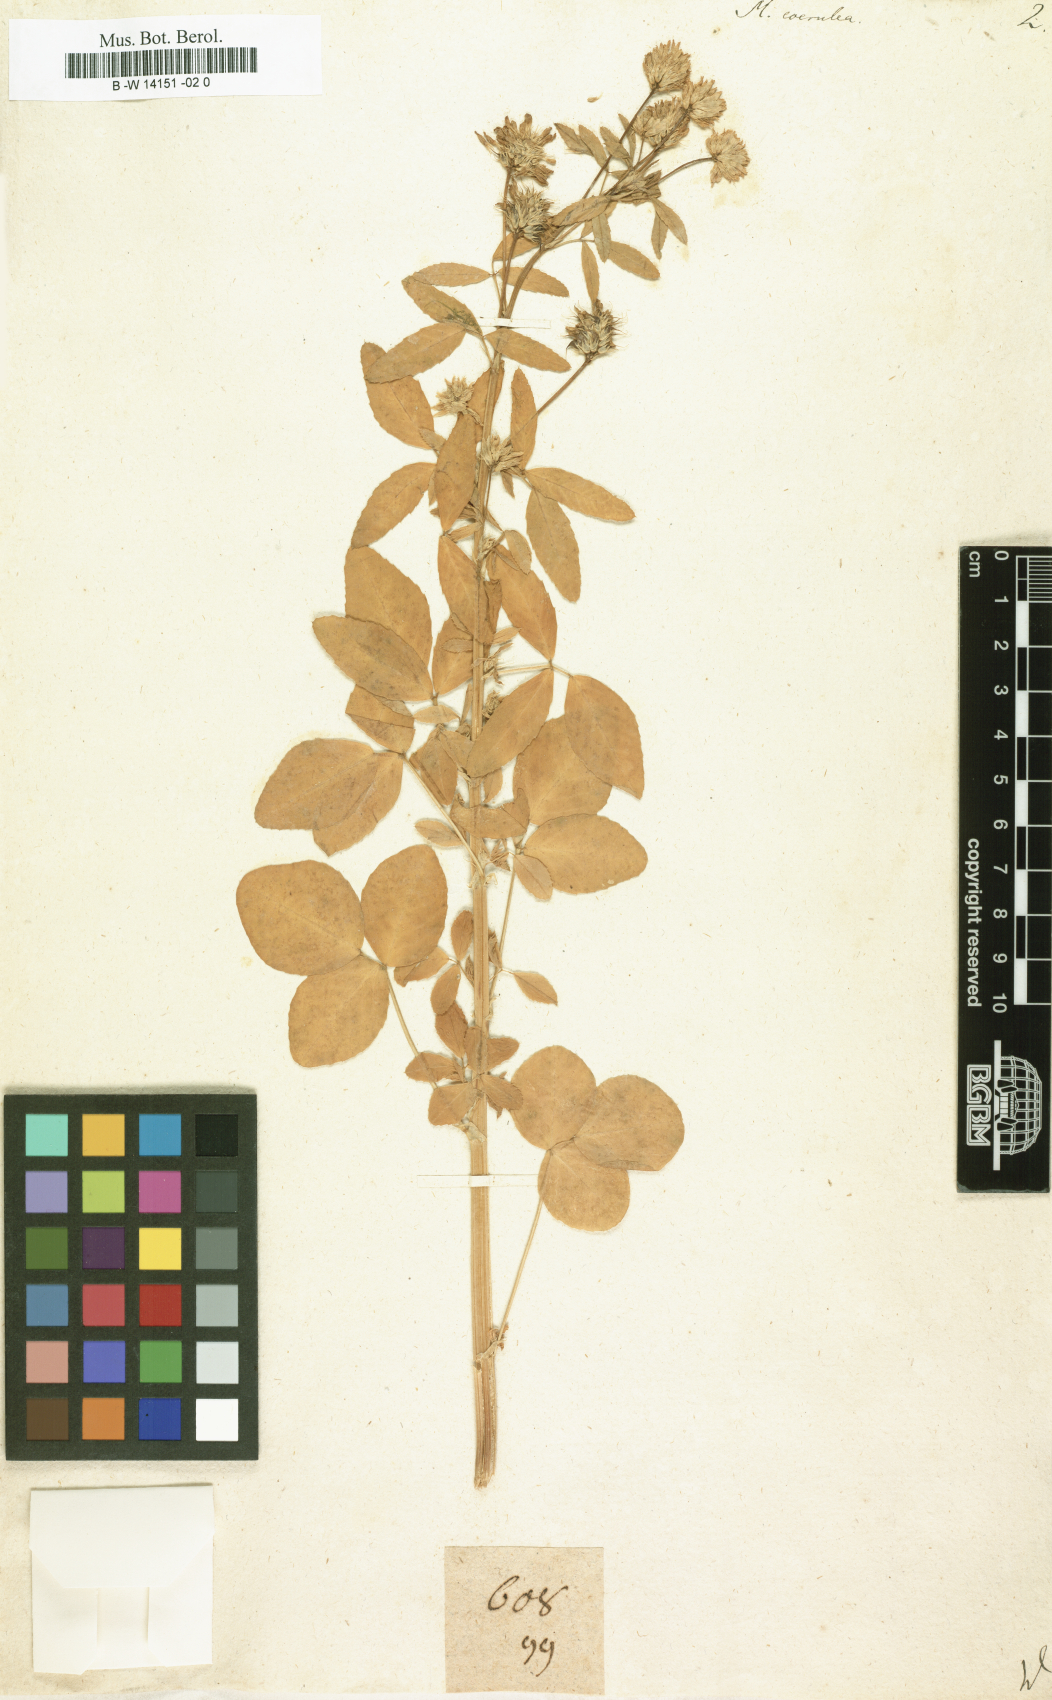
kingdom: Plantae
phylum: Tracheophyta
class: Magnoliopsida
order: Fabales
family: Fabaceae
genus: Trigonella
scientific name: Trigonella caerulea
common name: Blue fenugreek
